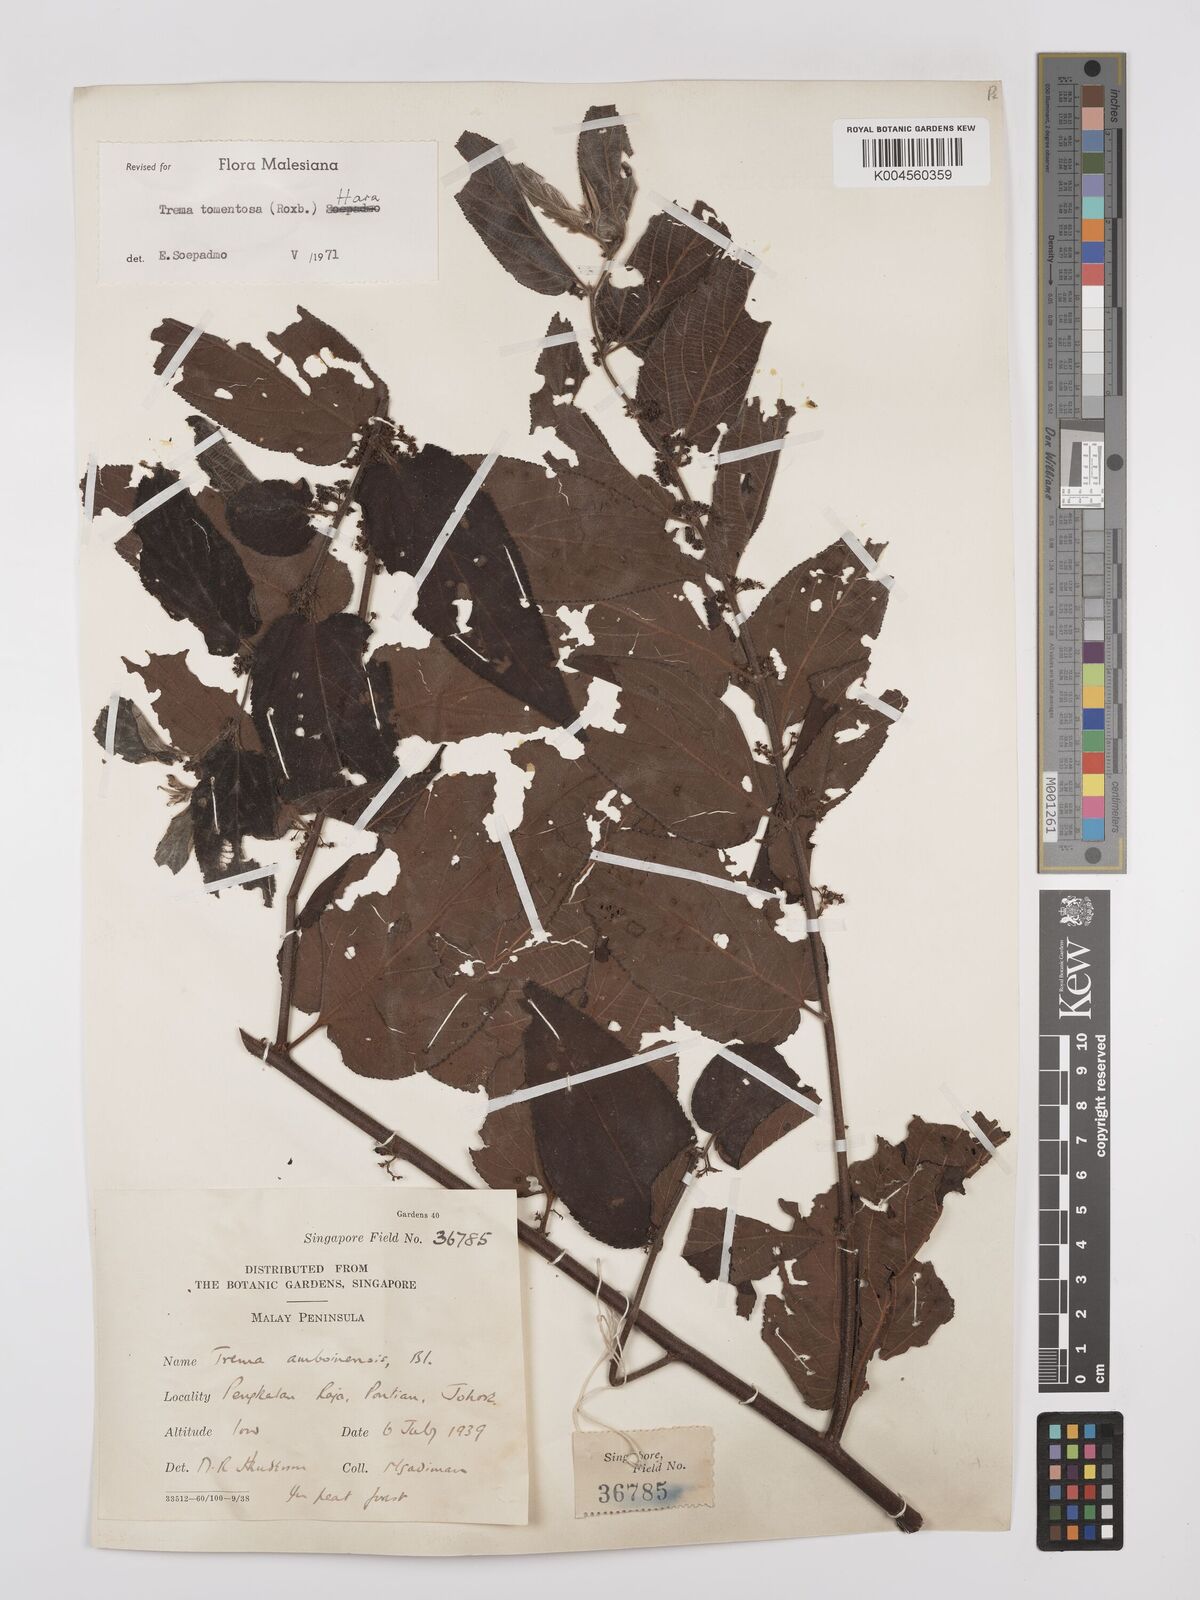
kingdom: Plantae
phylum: Tracheophyta
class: Magnoliopsida
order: Rosales
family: Cannabaceae
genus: Trema
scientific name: Trema tomentosum
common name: Peach-leaf-poisonbush
